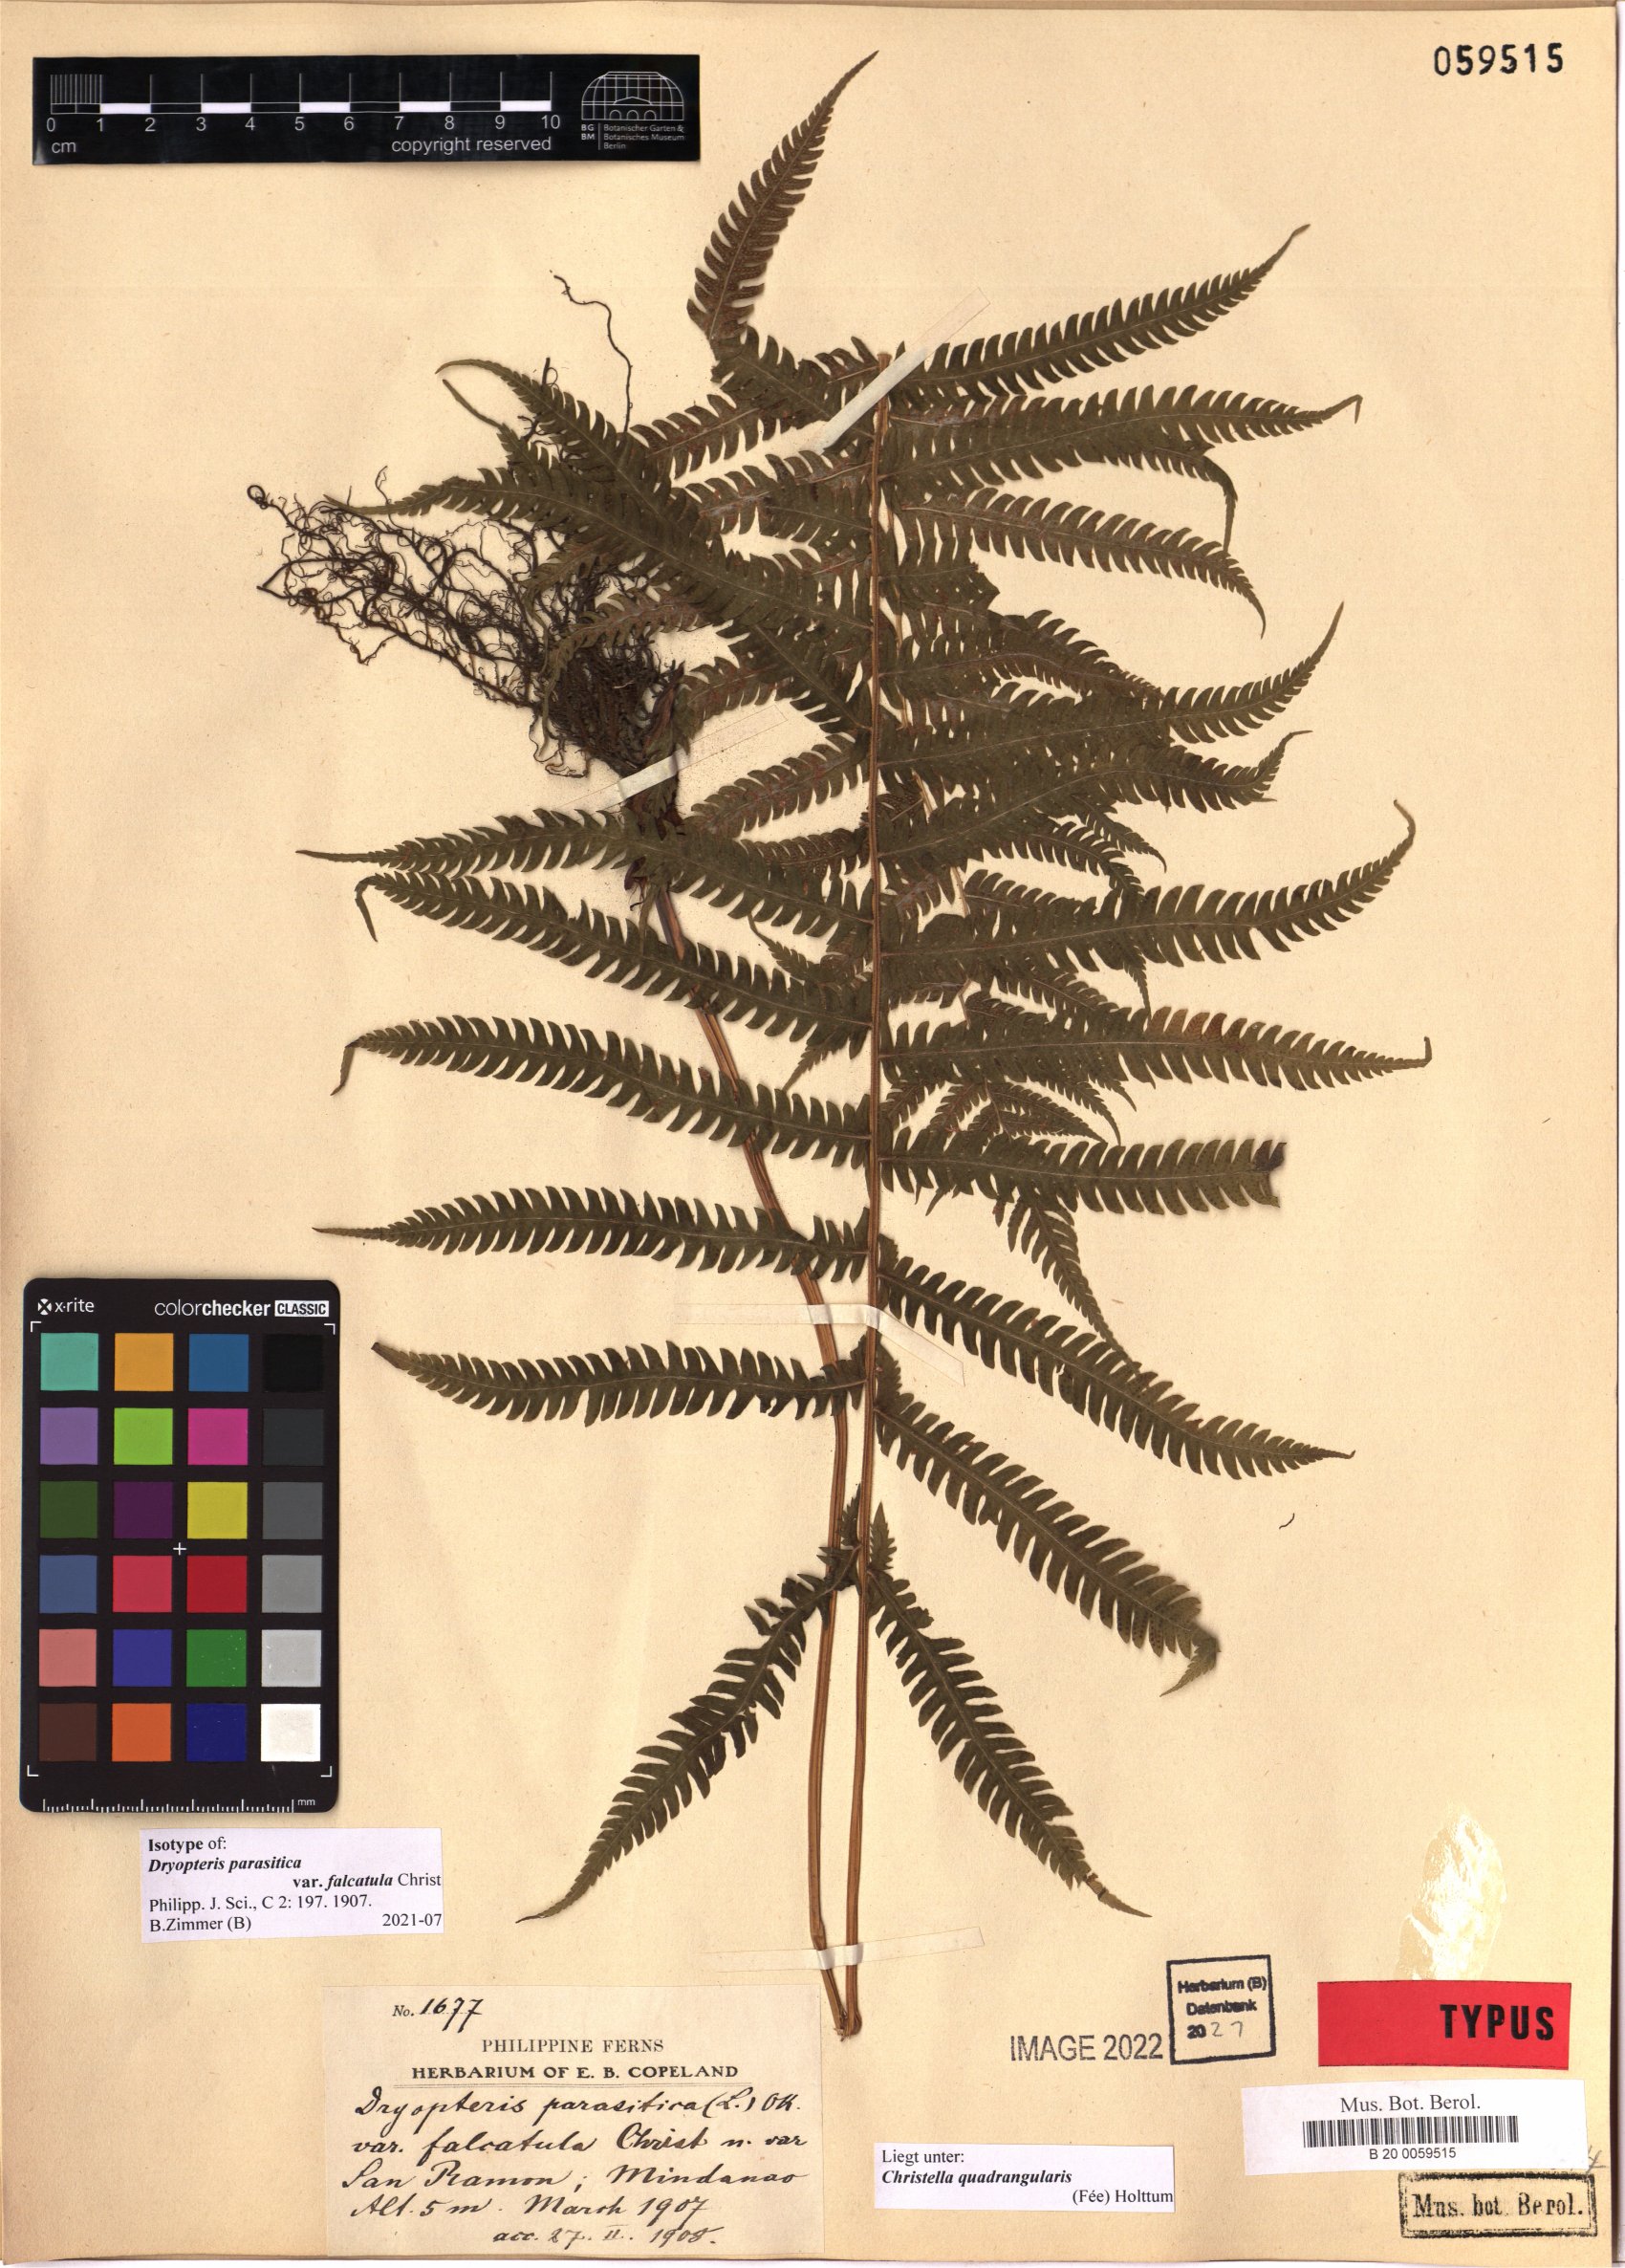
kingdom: Plantae
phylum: Tracheophyta
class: Polypodiopsida
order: Polypodiales
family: Thelypteridaceae
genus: Christella
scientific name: Christella hispidula
